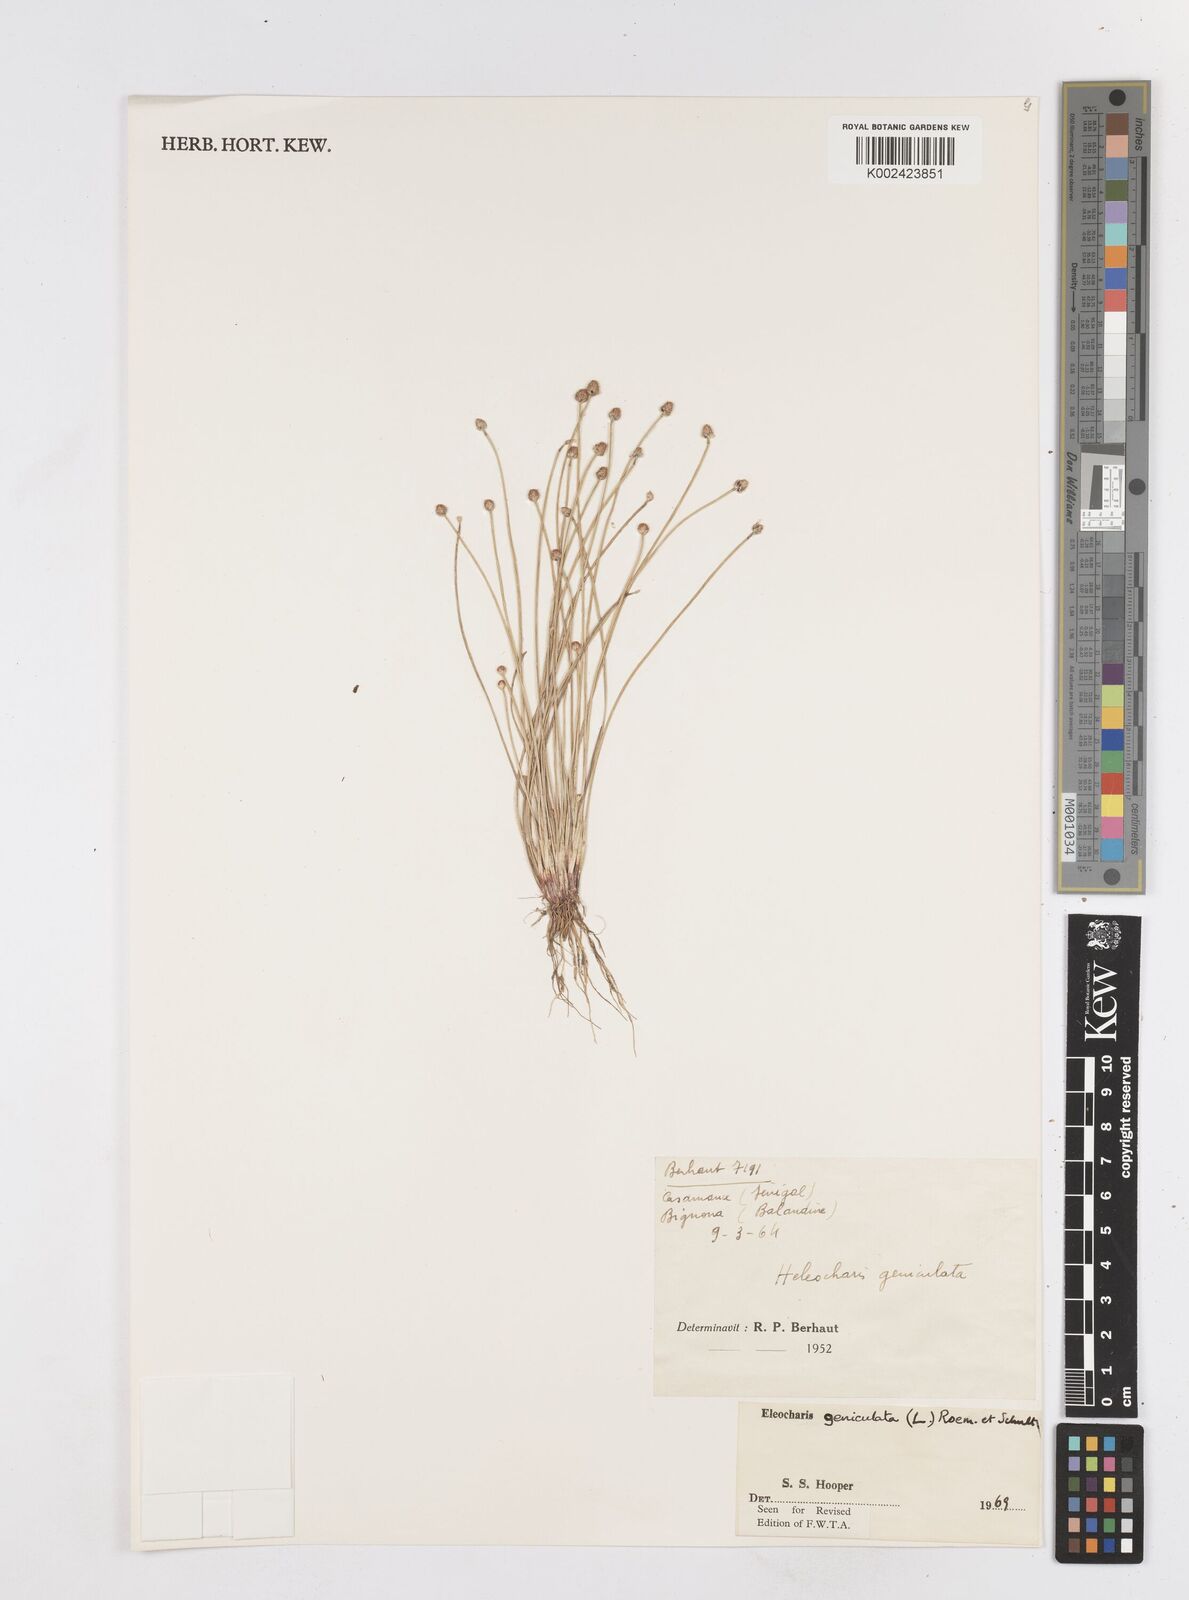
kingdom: Plantae
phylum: Tracheophyta
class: Liliopsida
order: Poales
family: Cyperaceae
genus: Eleocharis
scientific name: Eleocharis geniculata
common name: Canada spikesedge
